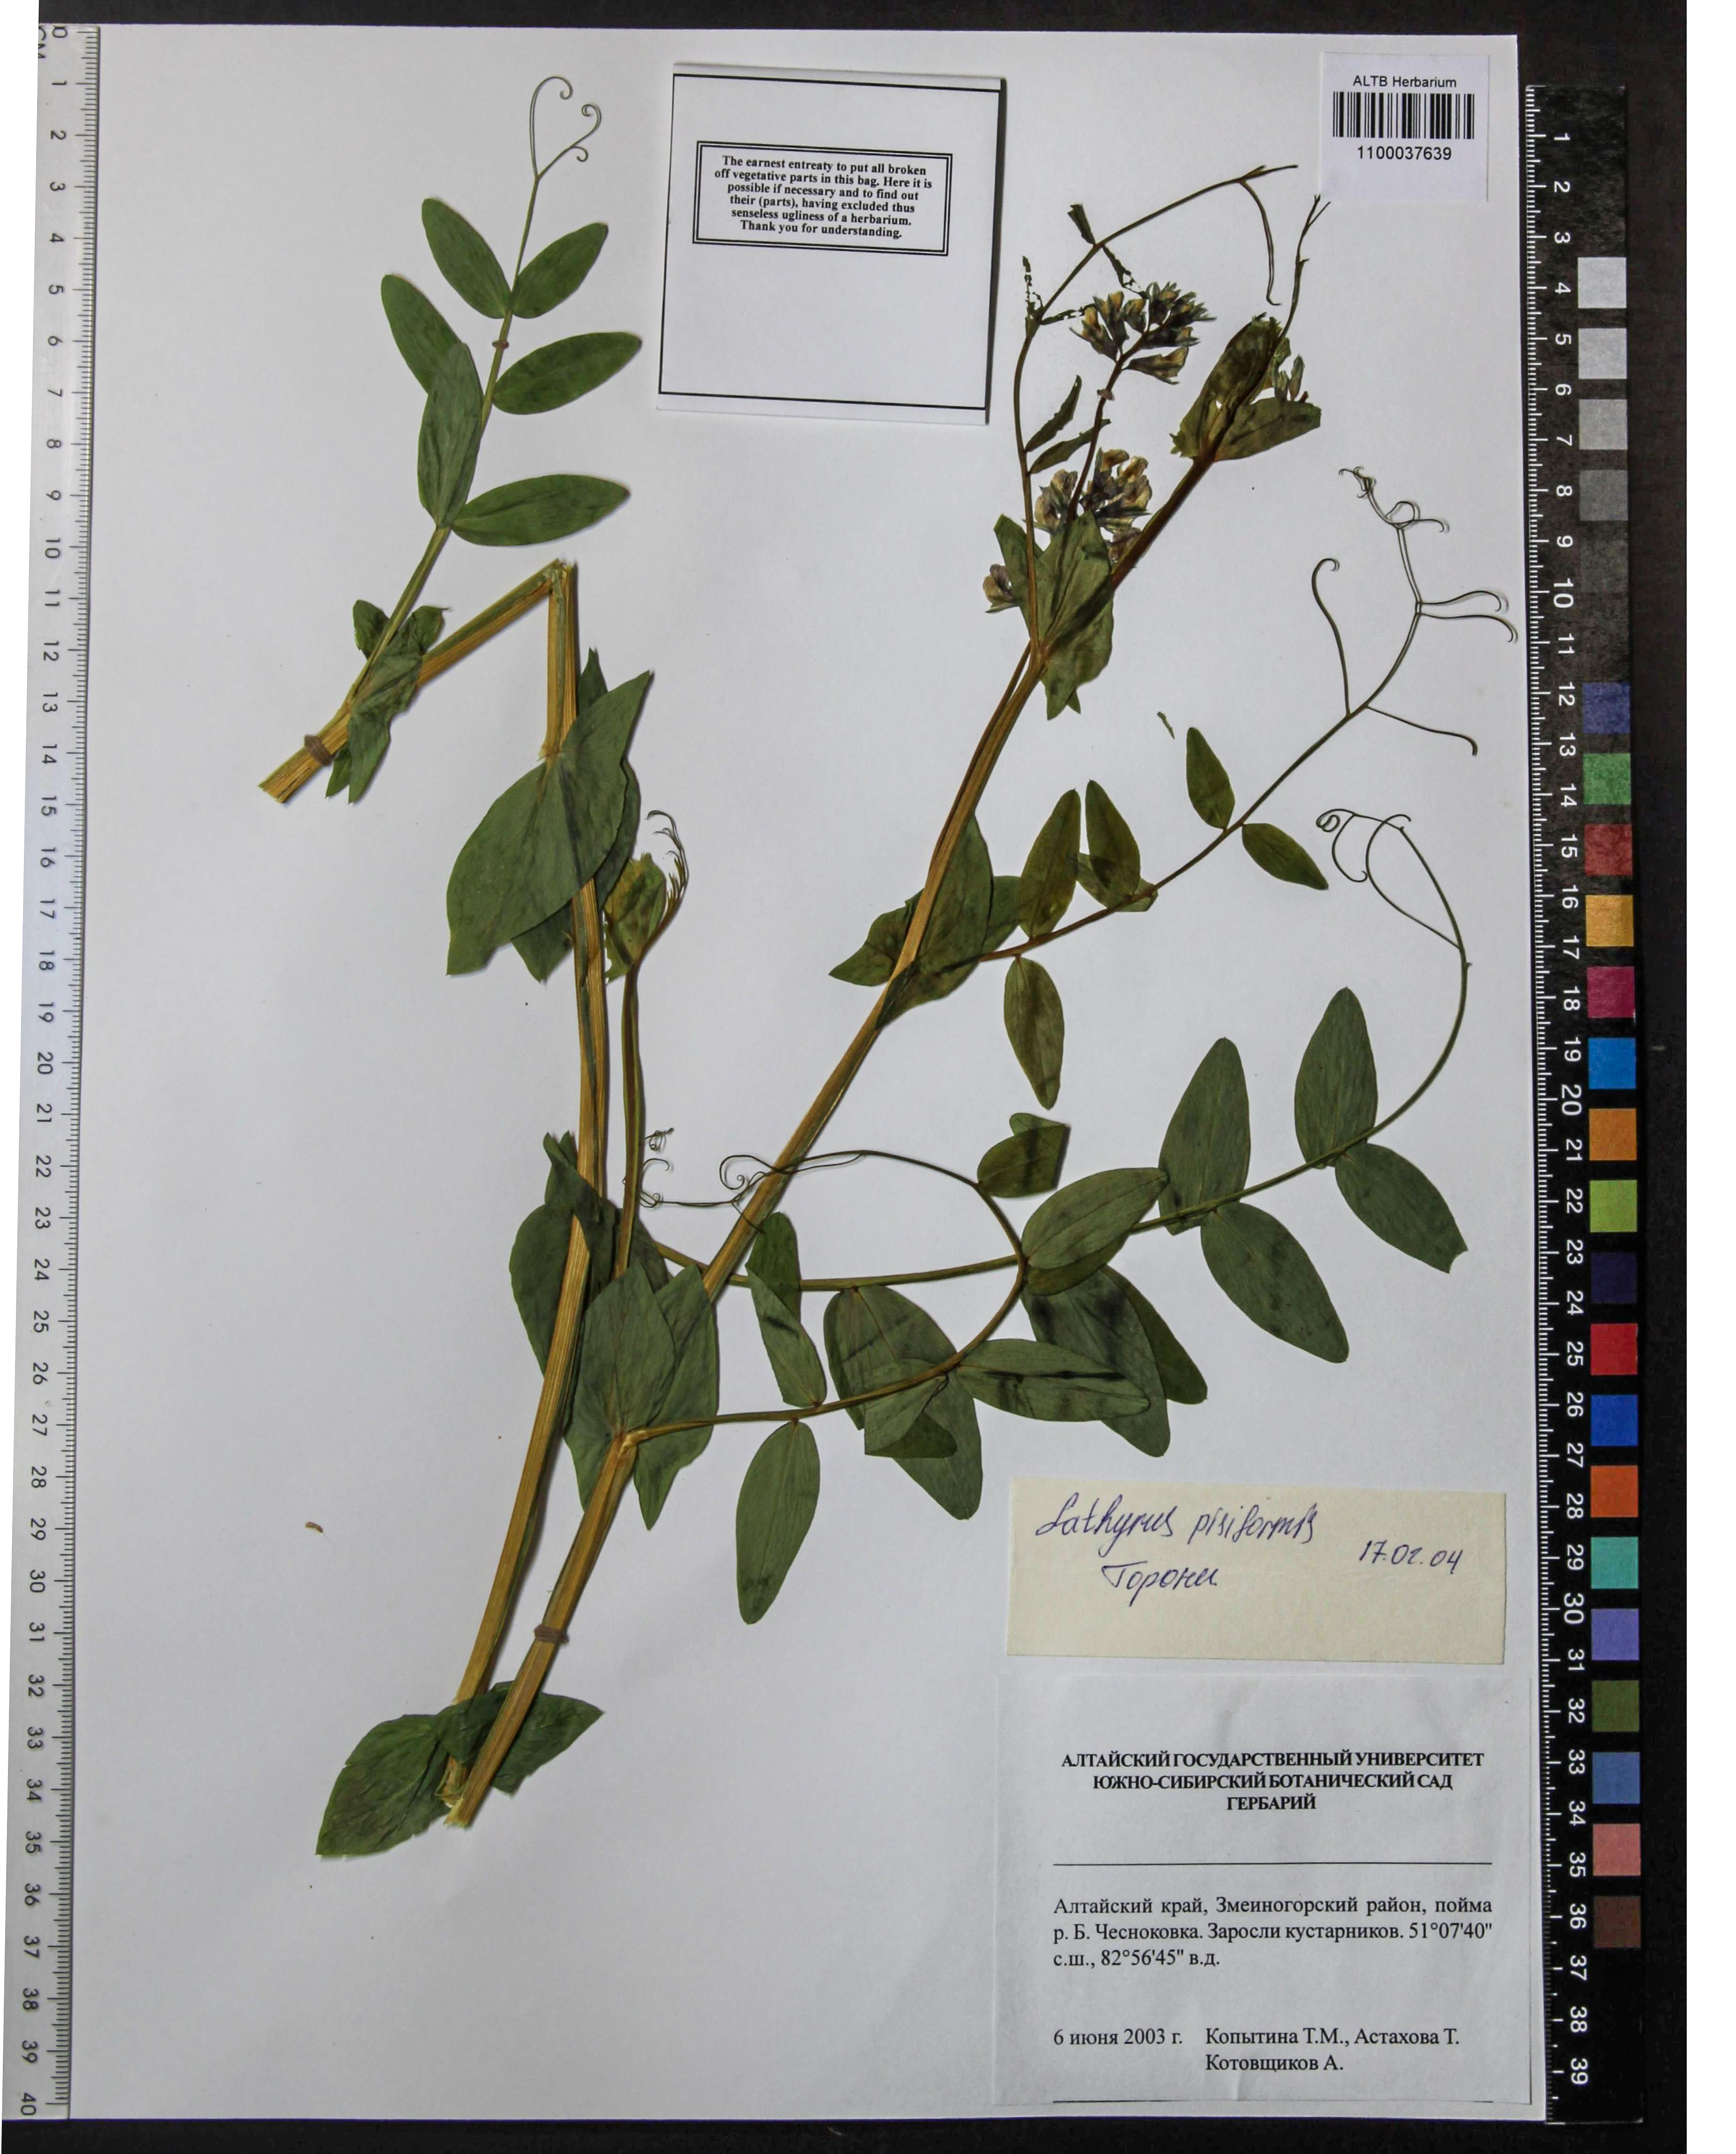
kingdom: Plantae
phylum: Tracheophyta
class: Magnoliopsida
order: Fabales
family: Fabaceae
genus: Lathyrus
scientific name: Lathyrus pisiformis
